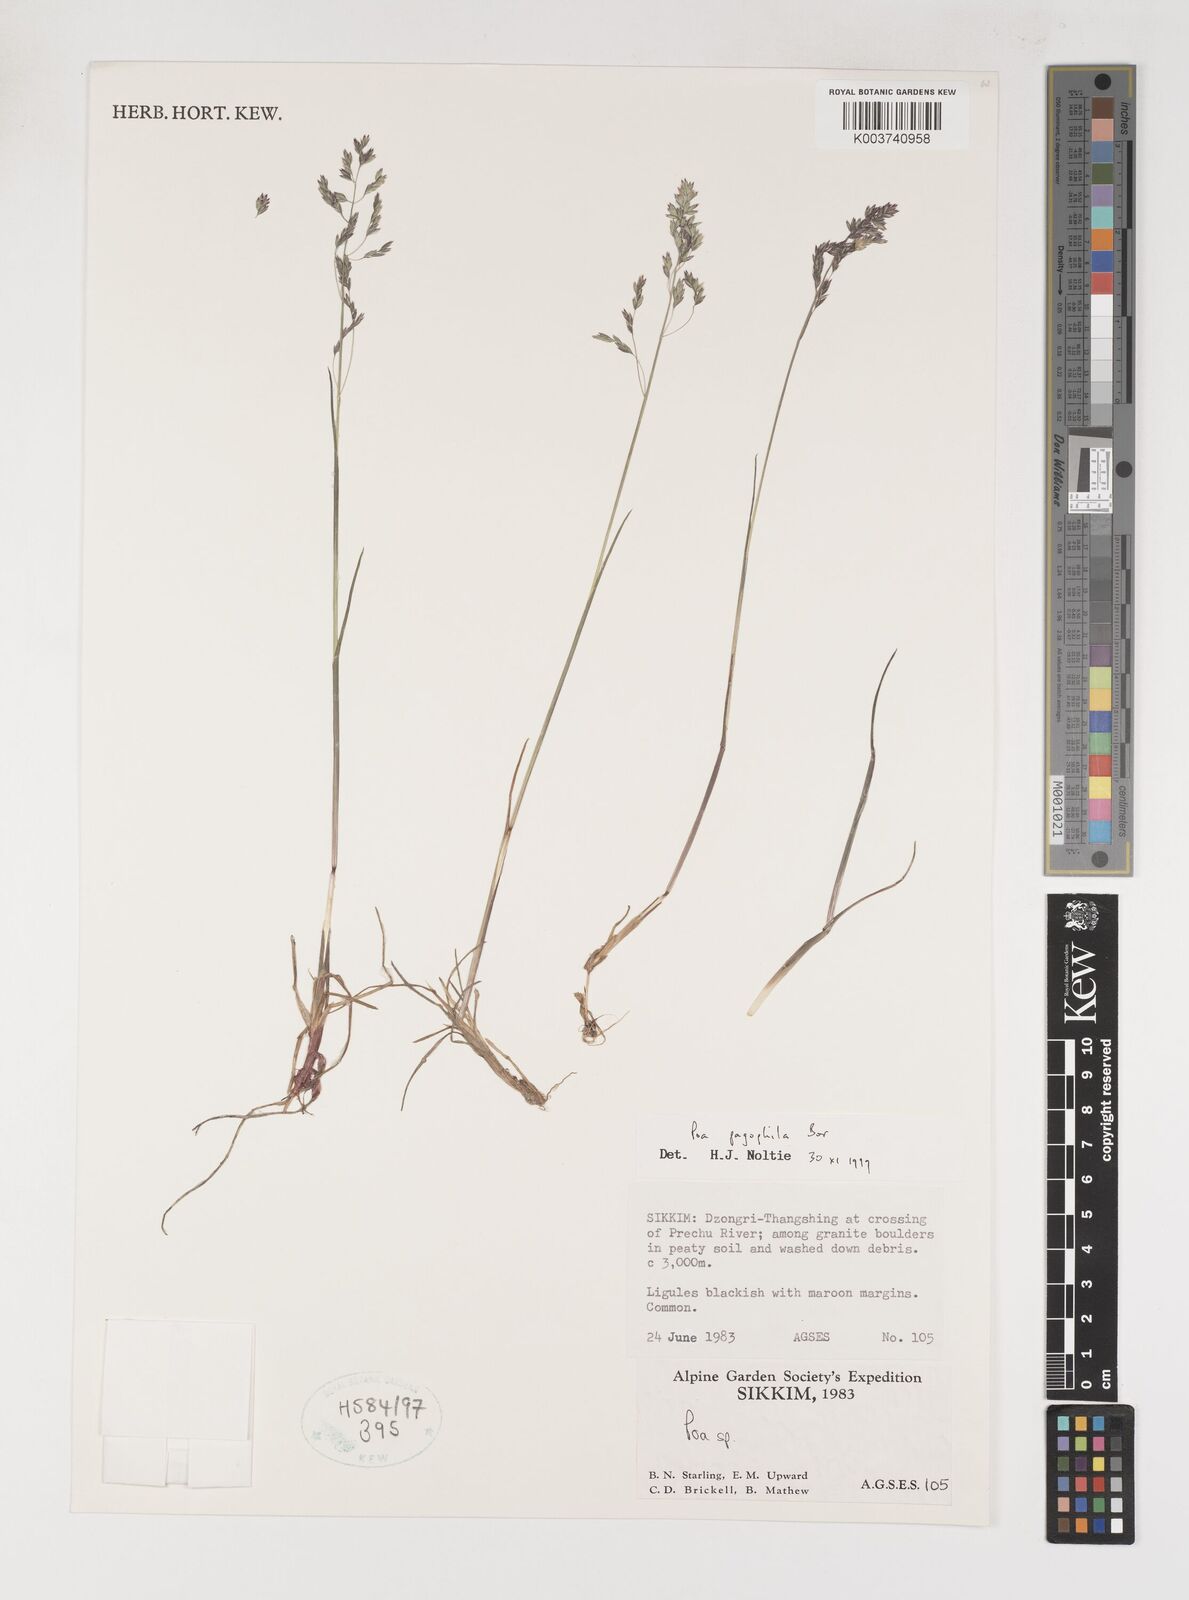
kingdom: Plantae
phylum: Tracheophyta
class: Liliopsida
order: Poales
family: Poaceae
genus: Poa
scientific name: Poa pagophila
